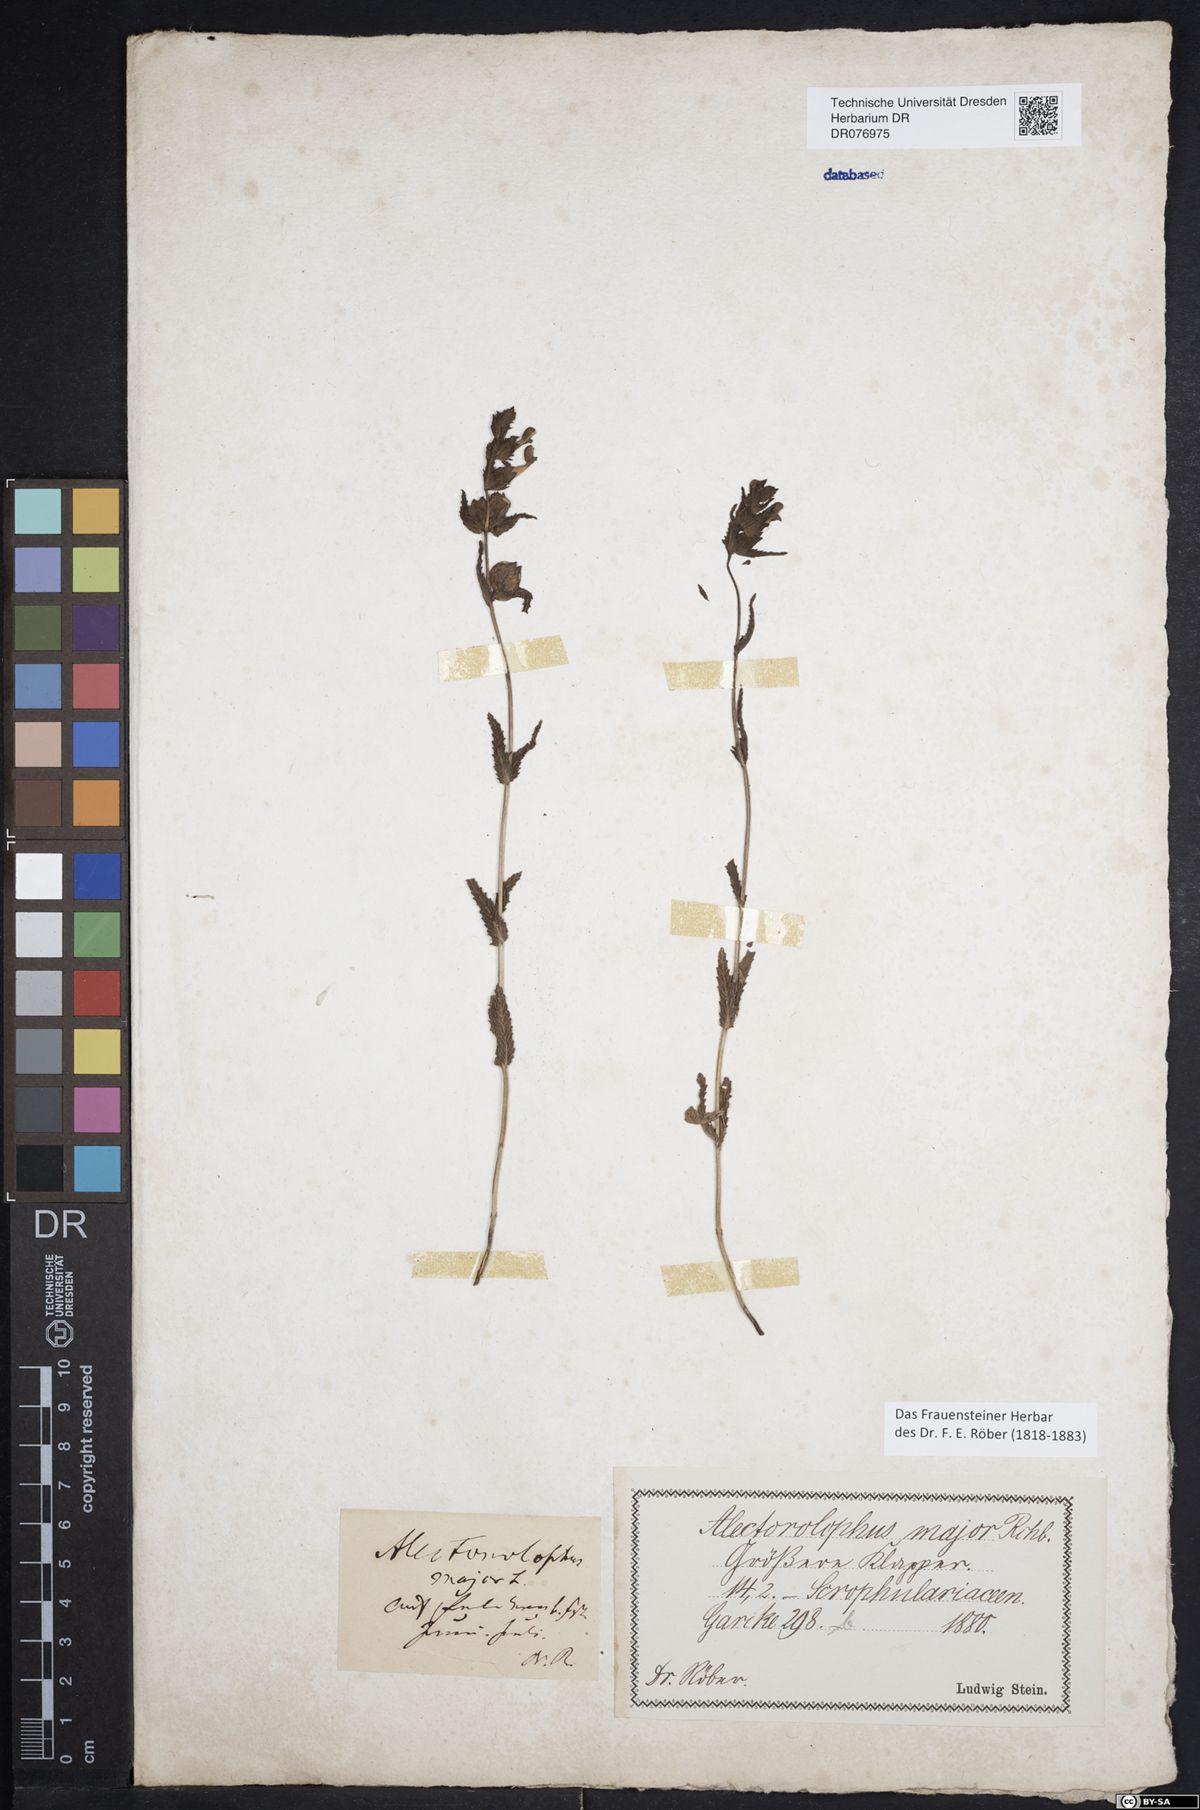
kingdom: Plantae
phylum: Tracheophyta
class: Magnoliopsida
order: Lamiales
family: Orobanchaceae
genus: Rhinanthus
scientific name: Rhinanthus serotinus
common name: Late-flowering yellow rattle
